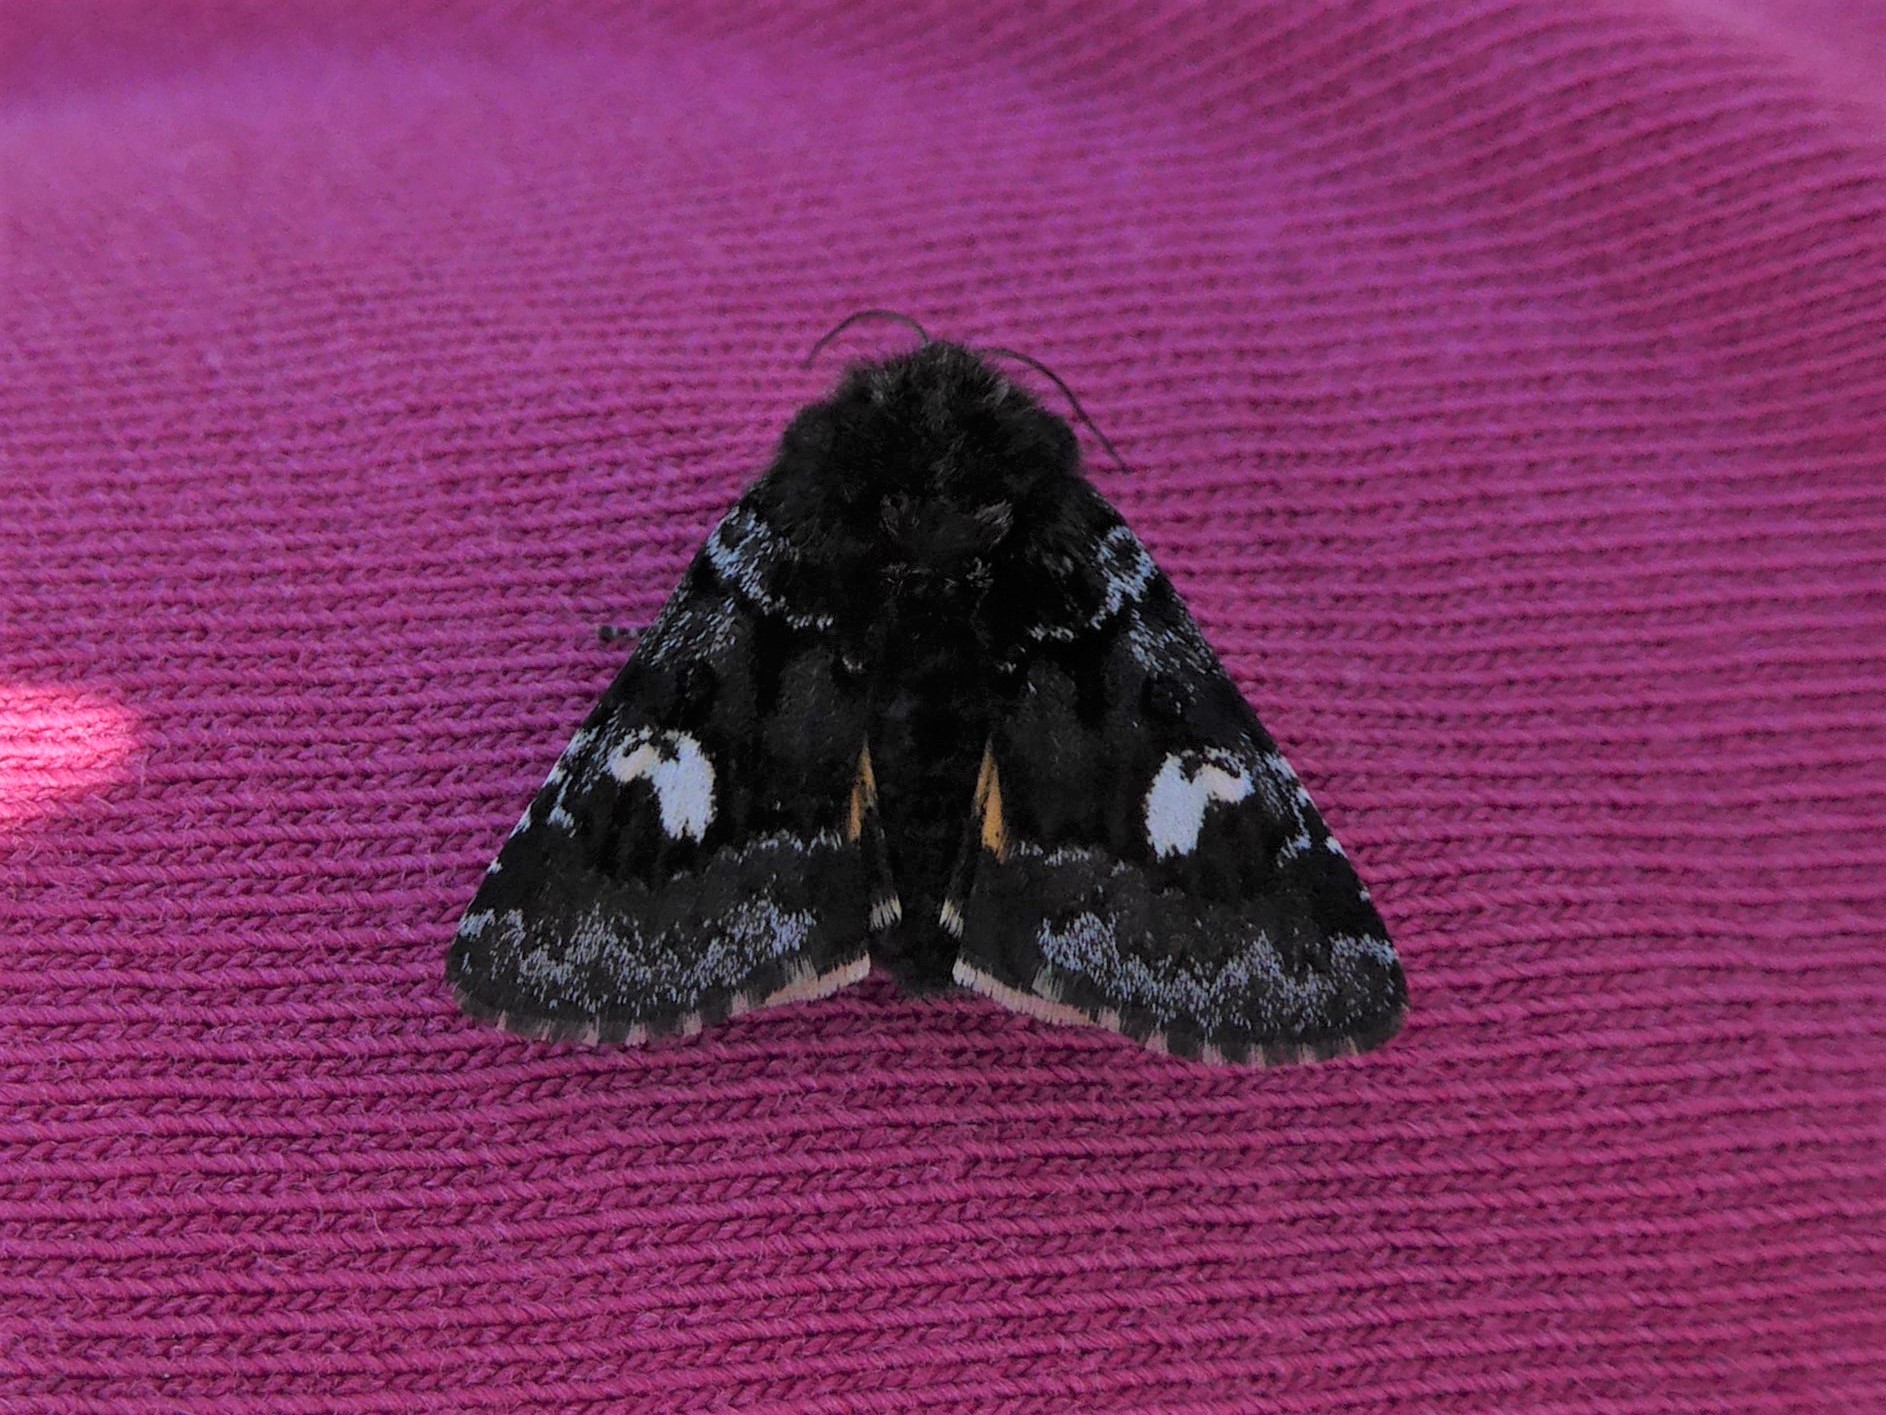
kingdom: Animalia
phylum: Arthropoda
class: Insecta
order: Lepidoptera
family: Noctuidae
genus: Coranarta
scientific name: Coranarta cordigera
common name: Small dark yellow underwing
